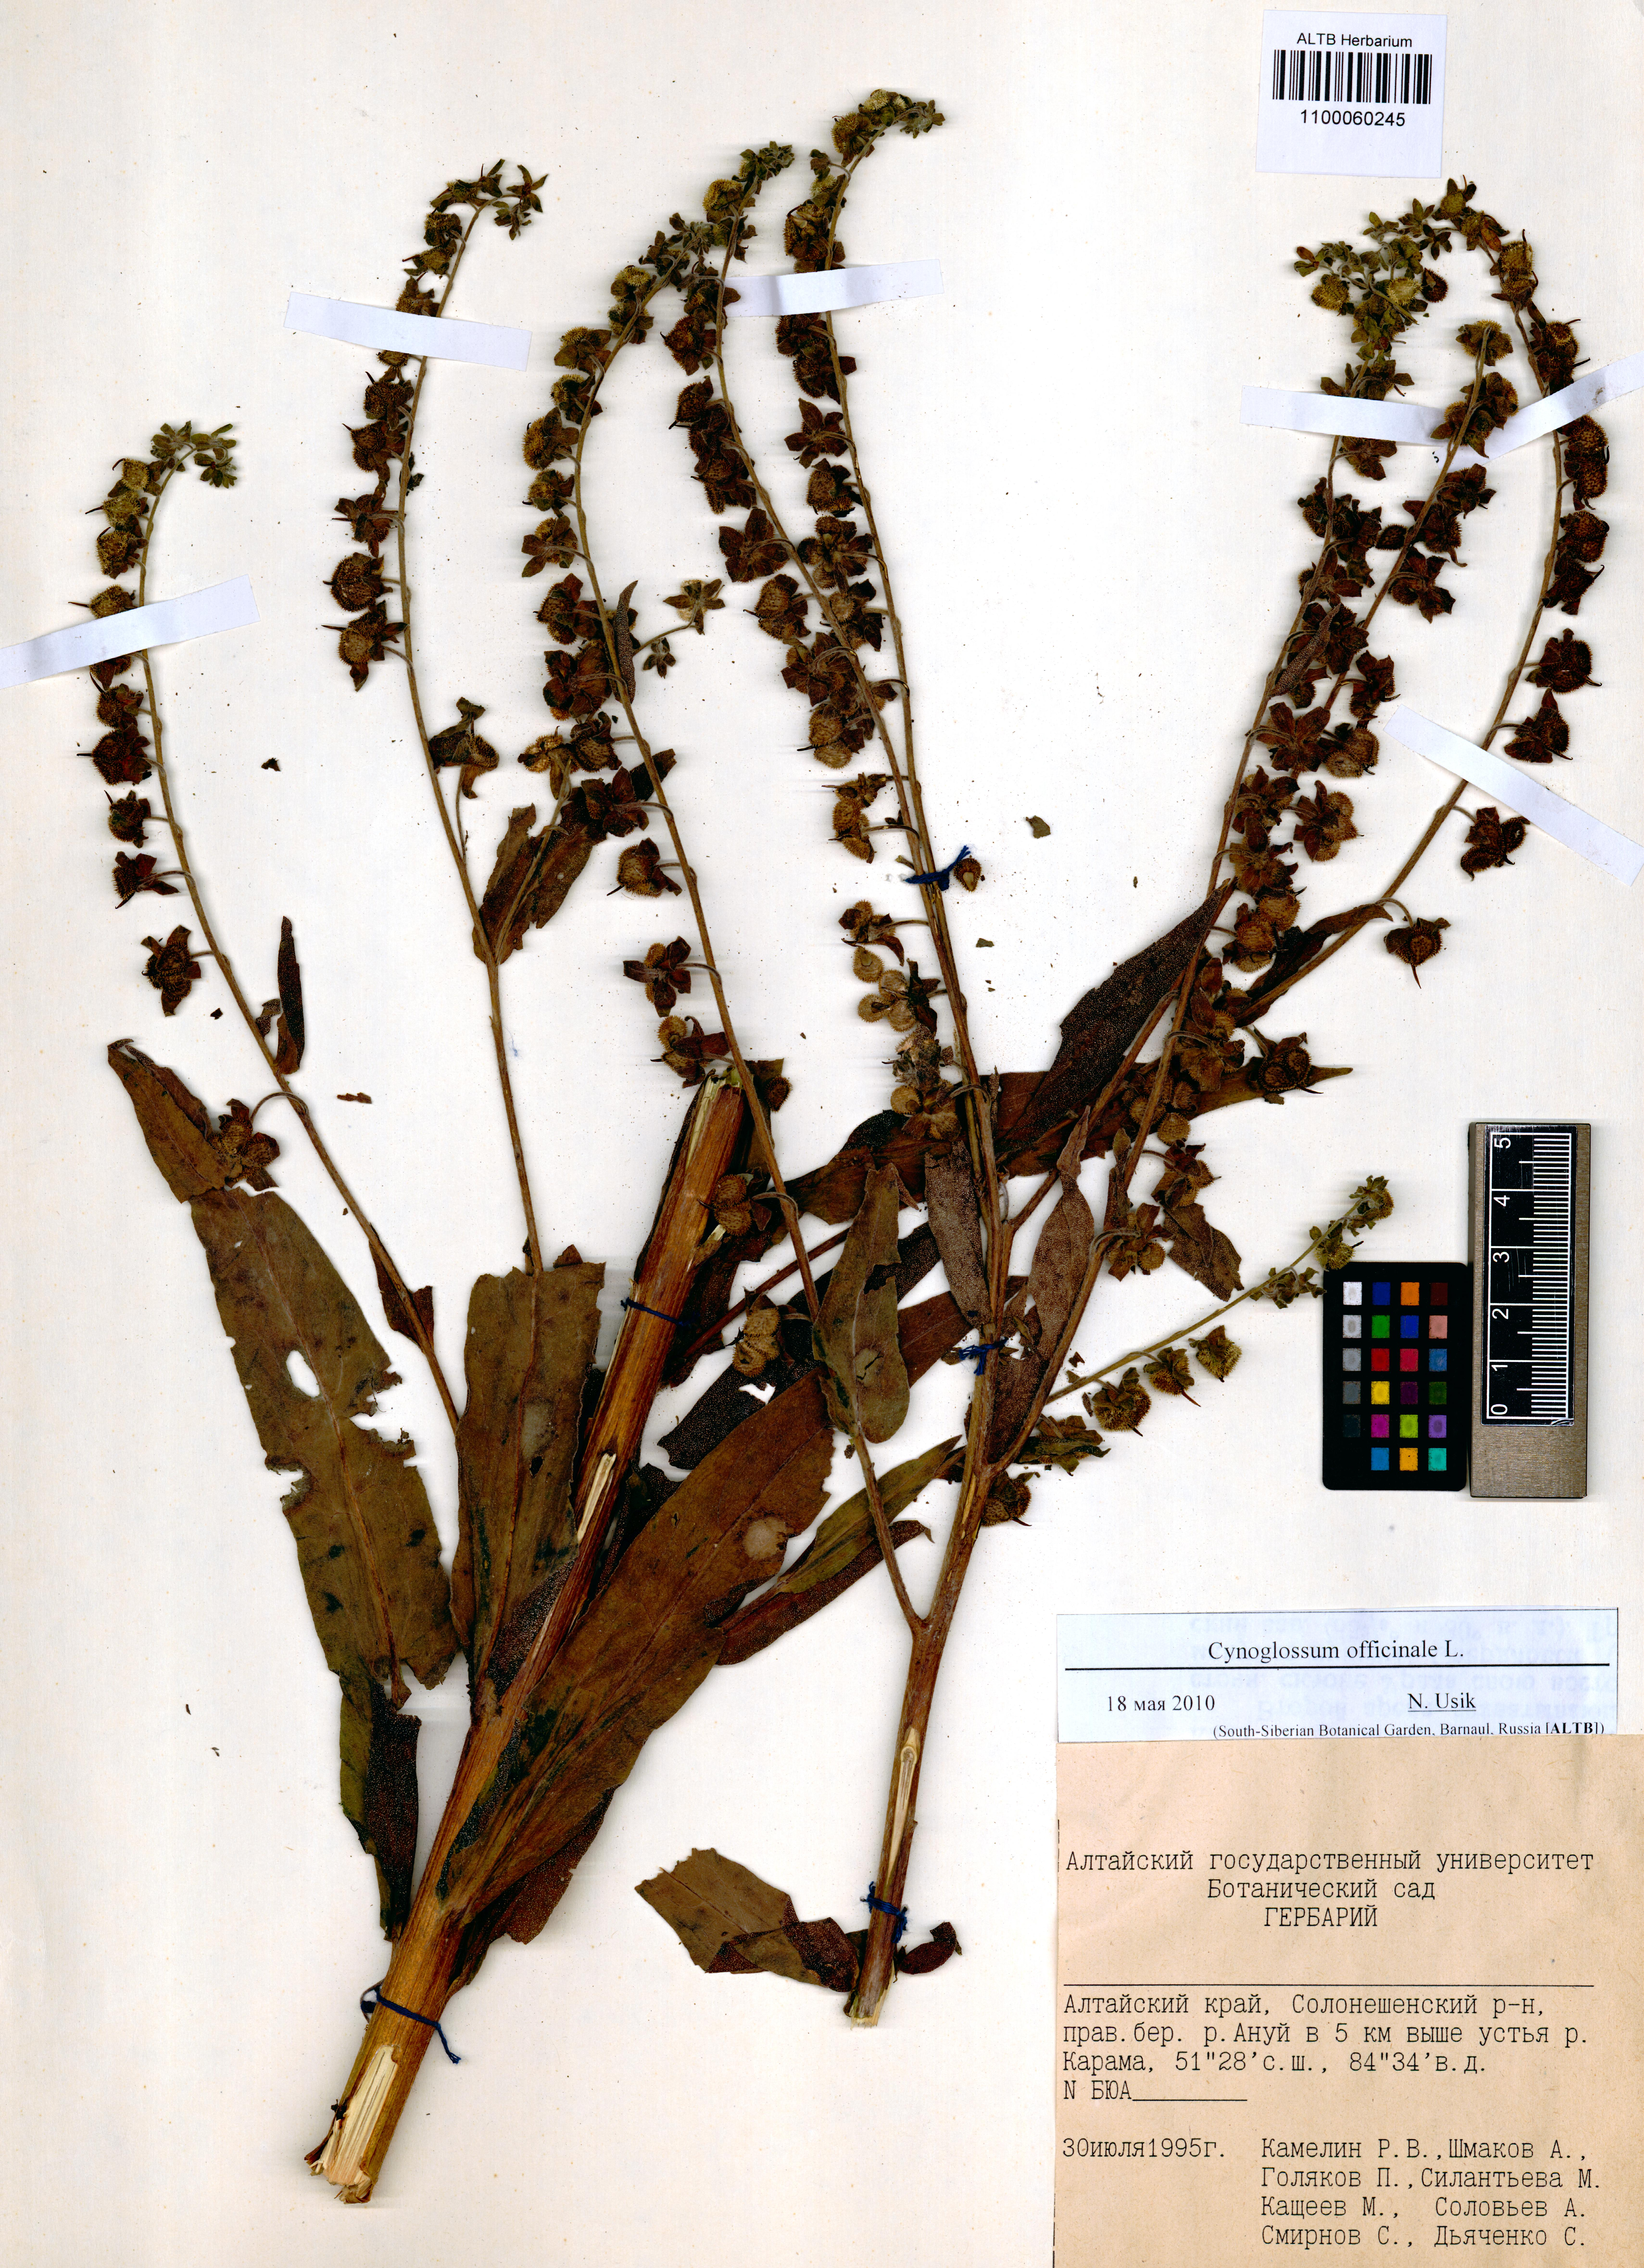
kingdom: Plantae
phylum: Tracheophyta
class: Magnoliopsida
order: Boraginales
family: Boraginaceae
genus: Cynoglossum
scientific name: Cynoglossum officinale
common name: Hound's-tongue
